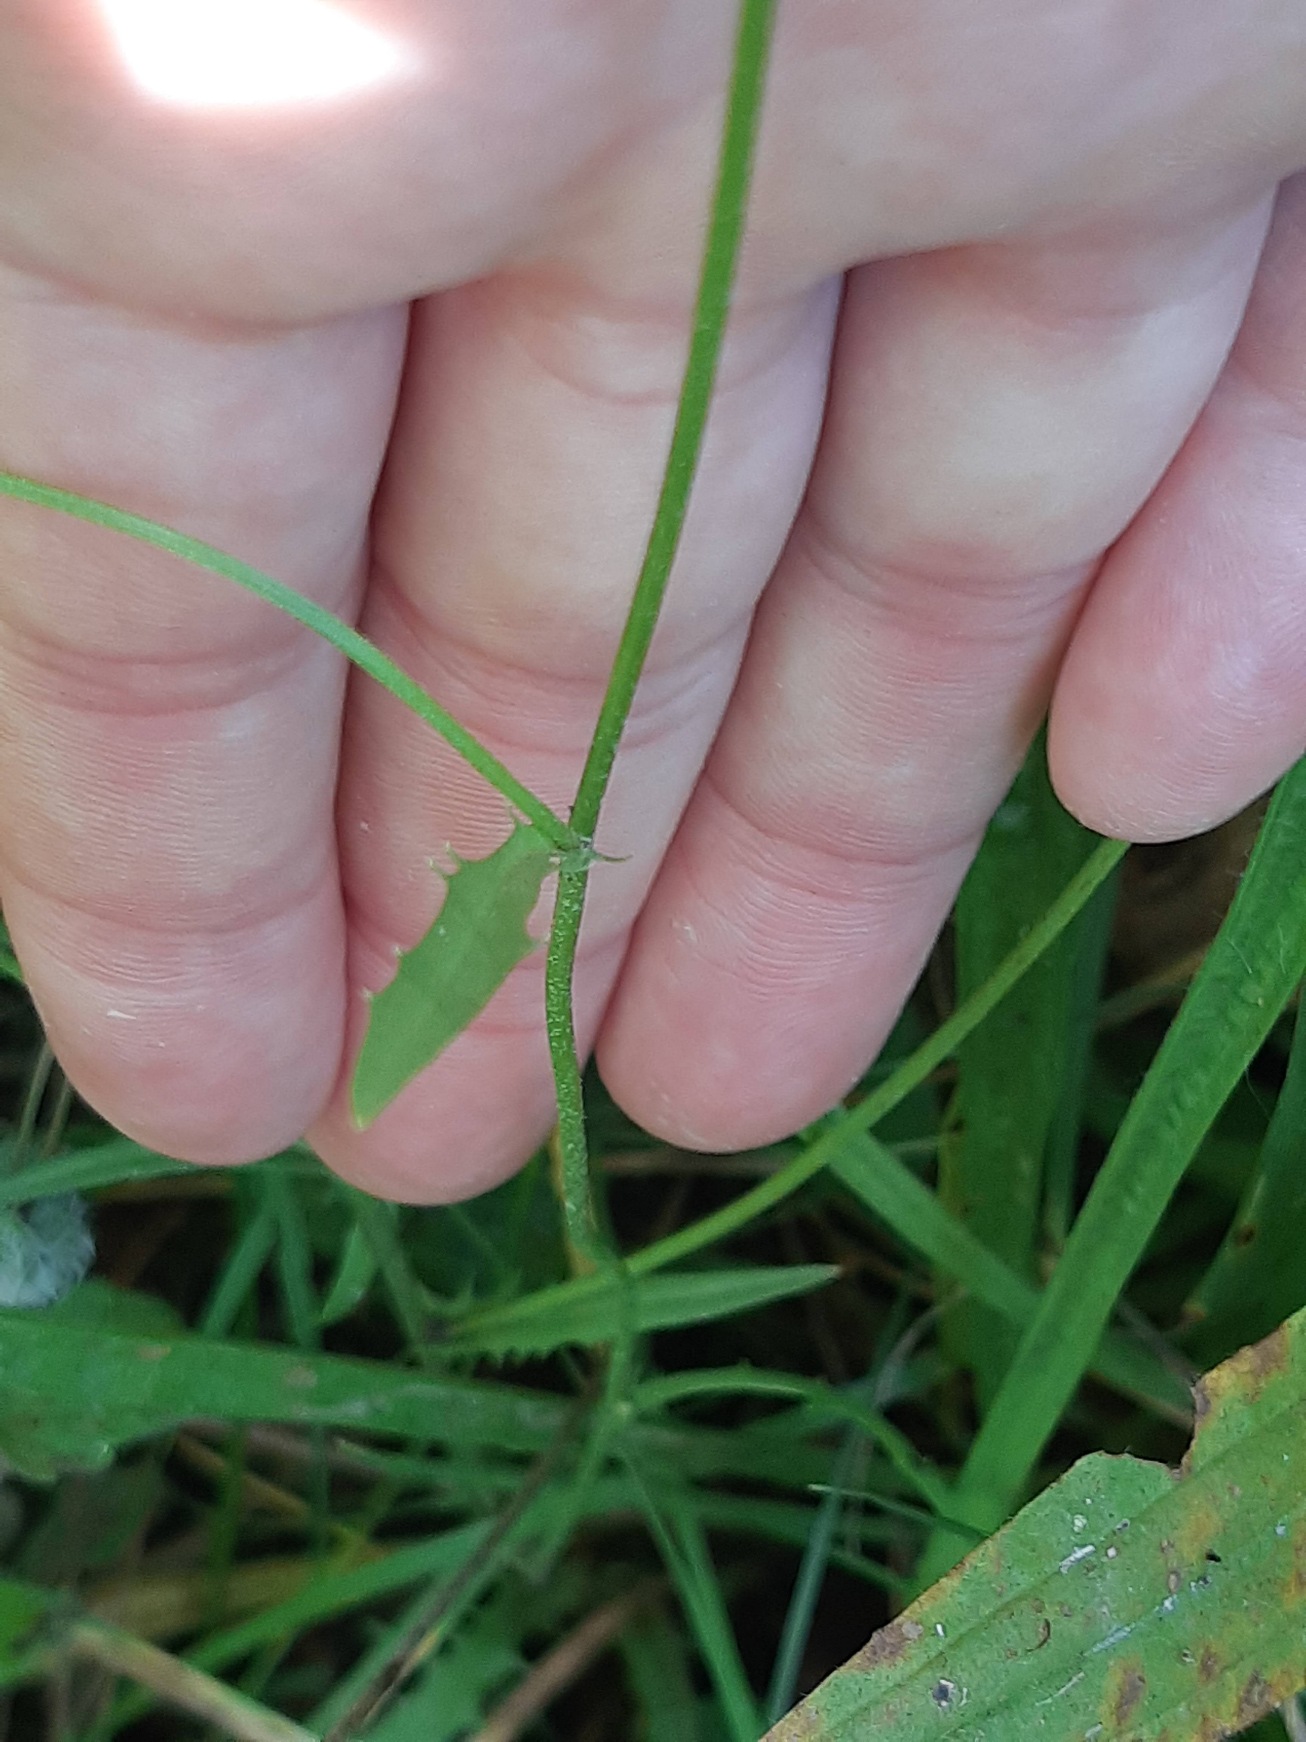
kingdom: Plantae
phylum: Tracheophyta
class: Magnoliopsida
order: Asterales
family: Asteraceae
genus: Crepis
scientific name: Crepis capillaris
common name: Grøn høgeskæg
